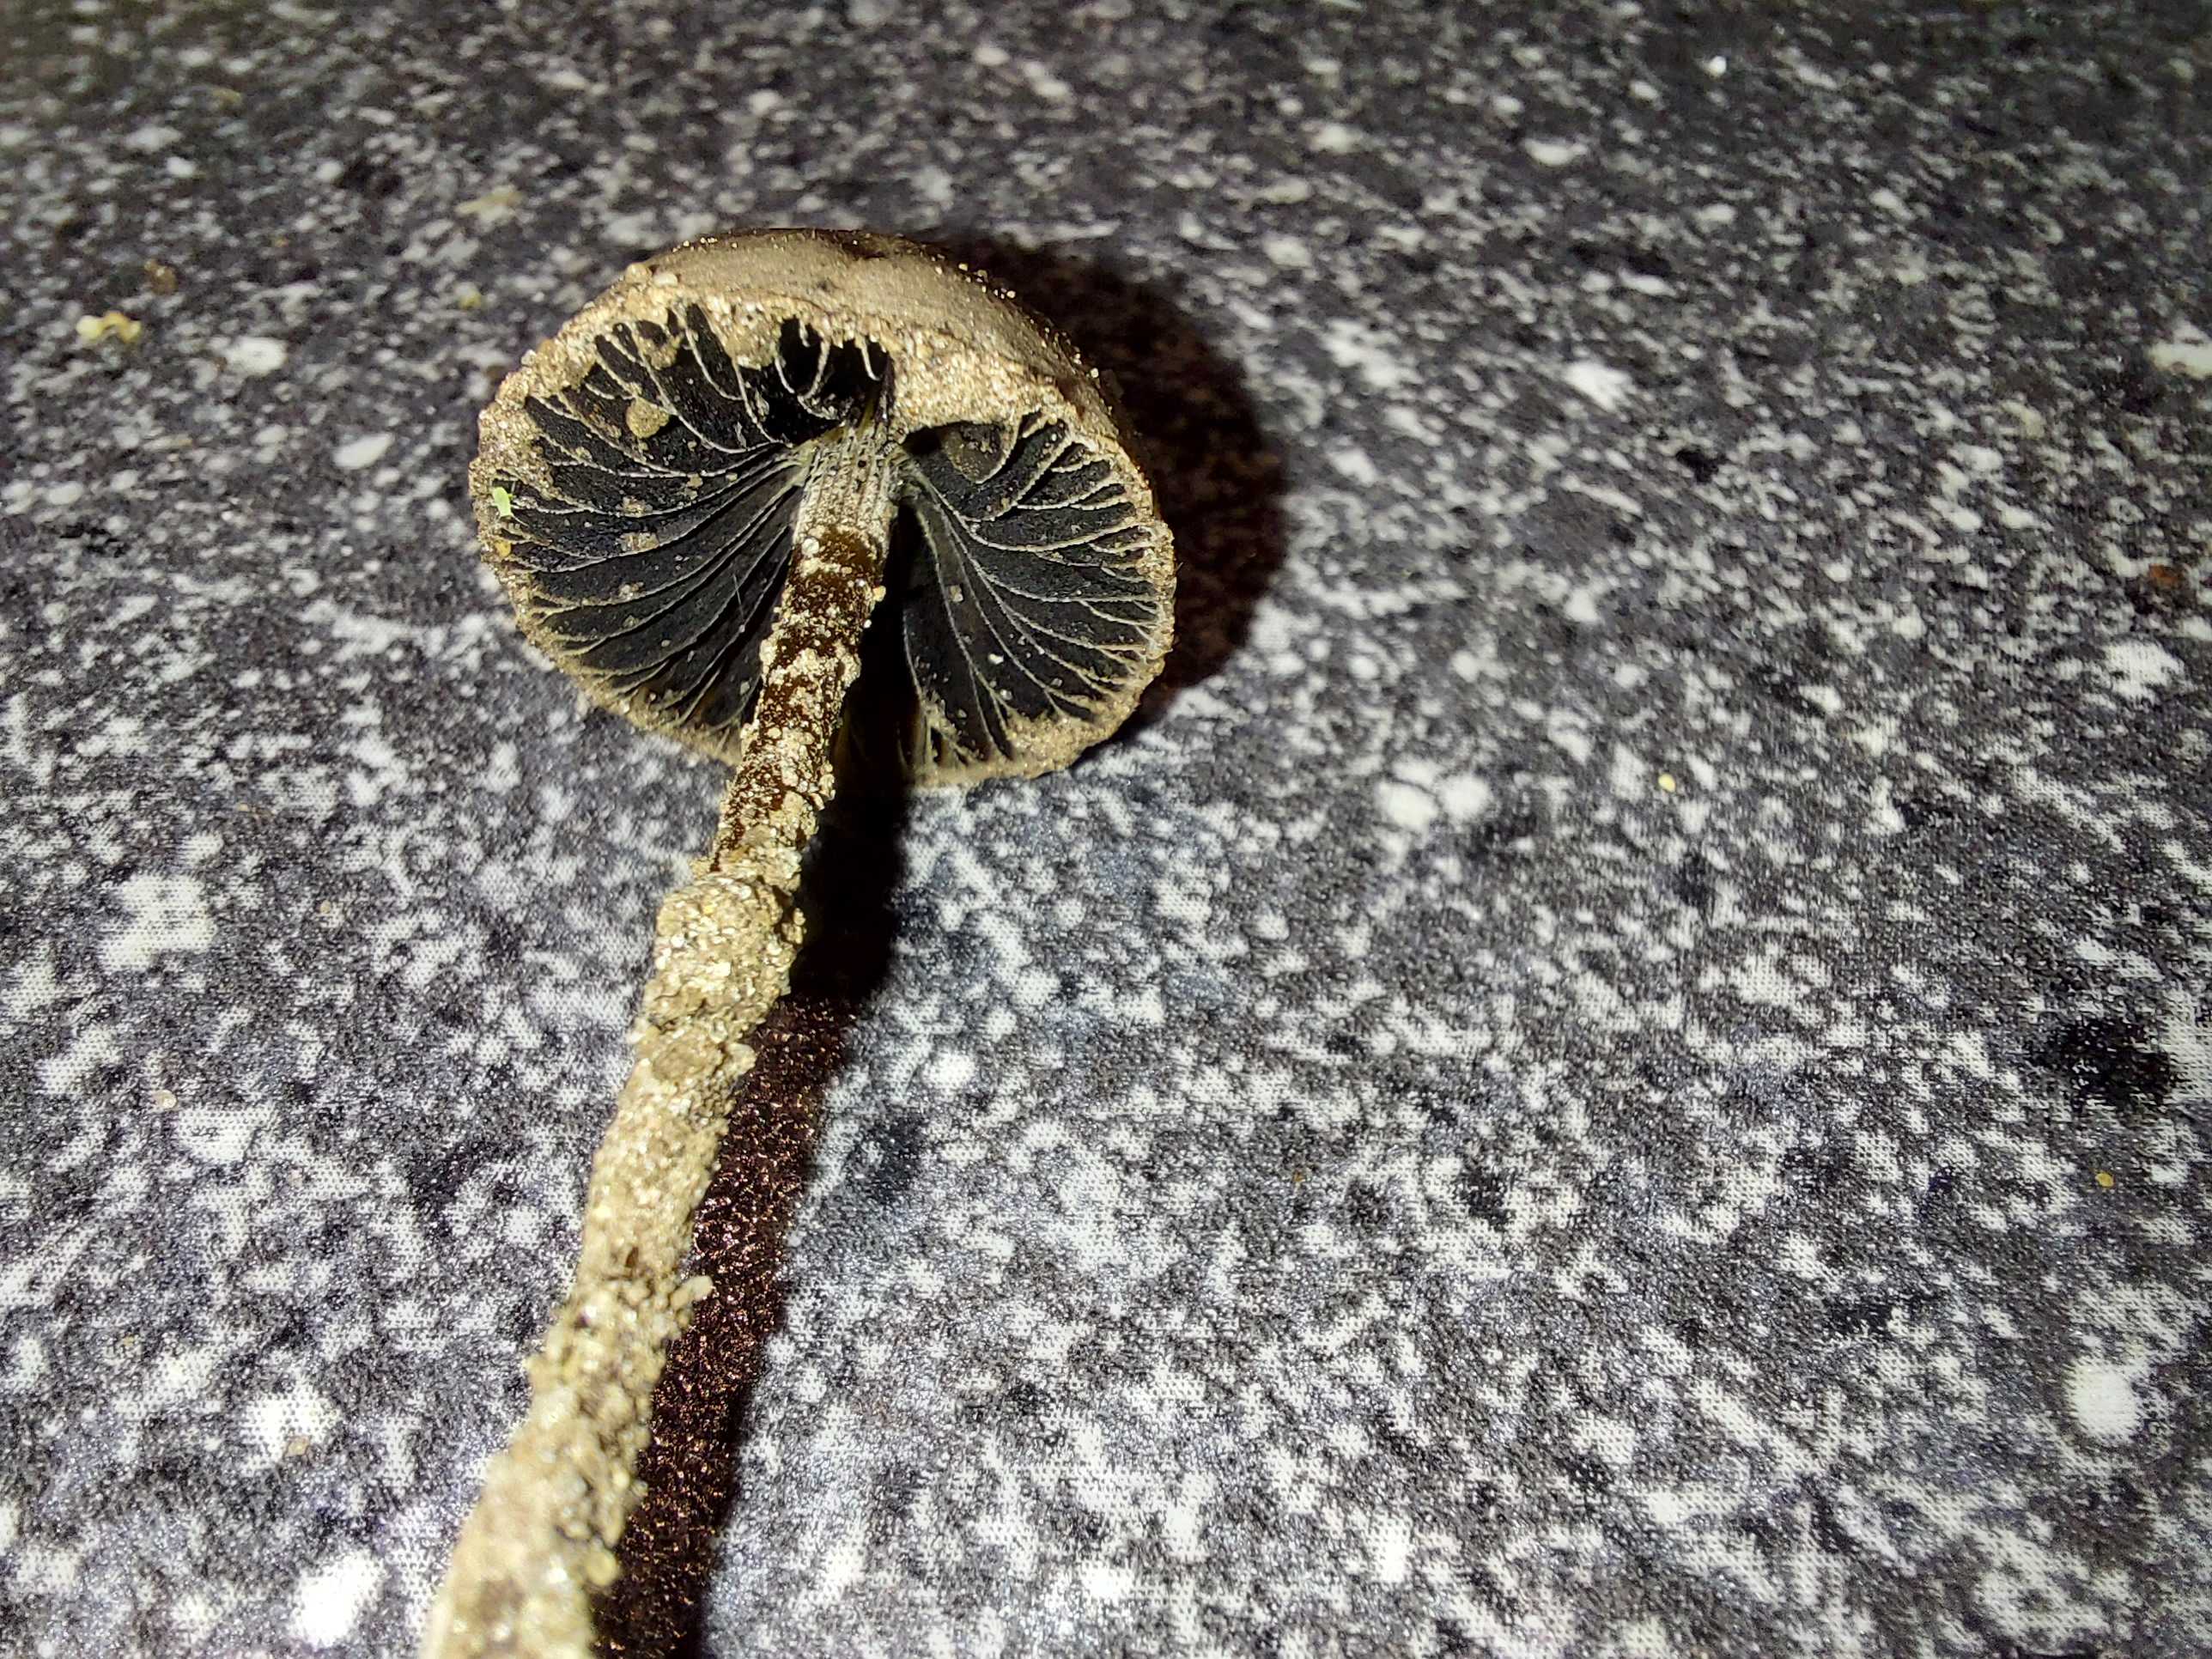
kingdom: Fungi
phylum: Basidiomycota
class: Agaricomycetes
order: Agaricales
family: Bolbitiaceae
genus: Panaeolus
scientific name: Panaeolus papilionaceus
